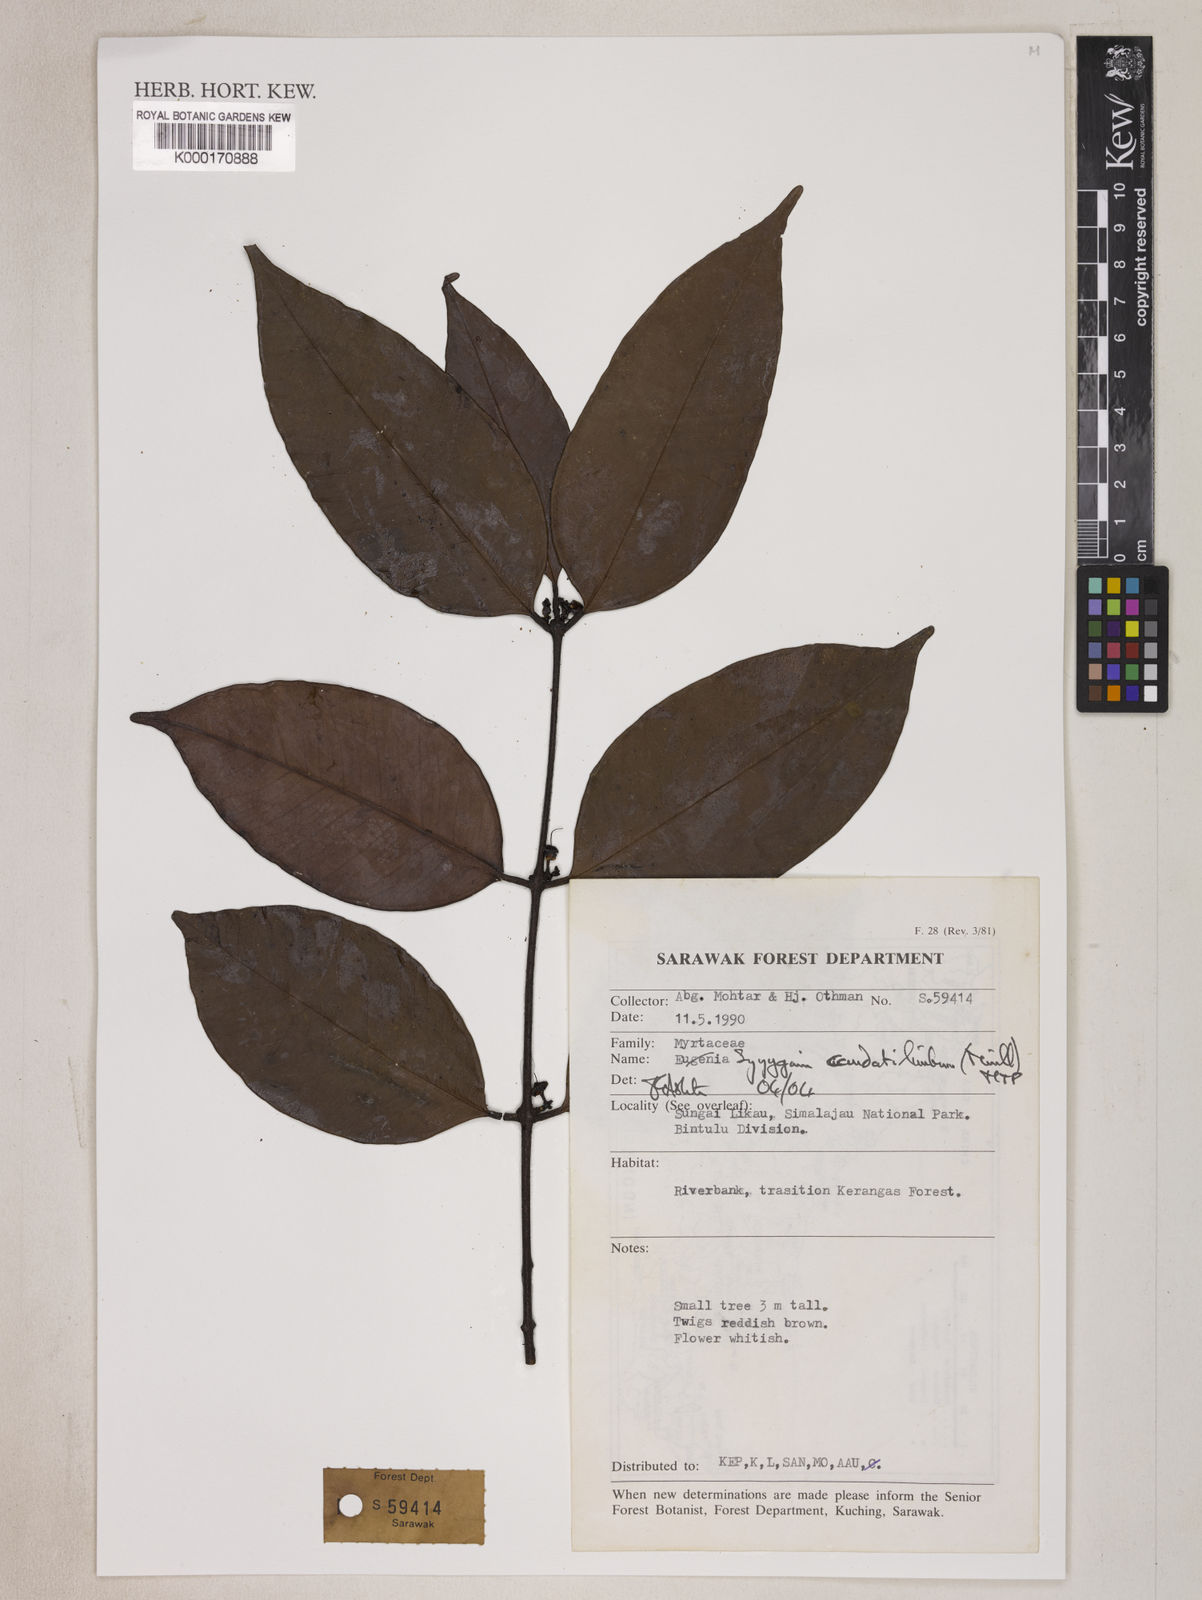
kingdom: Plantae
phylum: Tracheophyta
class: Magnoliopsida
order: Myrtales
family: Myrtaceae
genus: Syzygium
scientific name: Syzygium caudatilimbum
